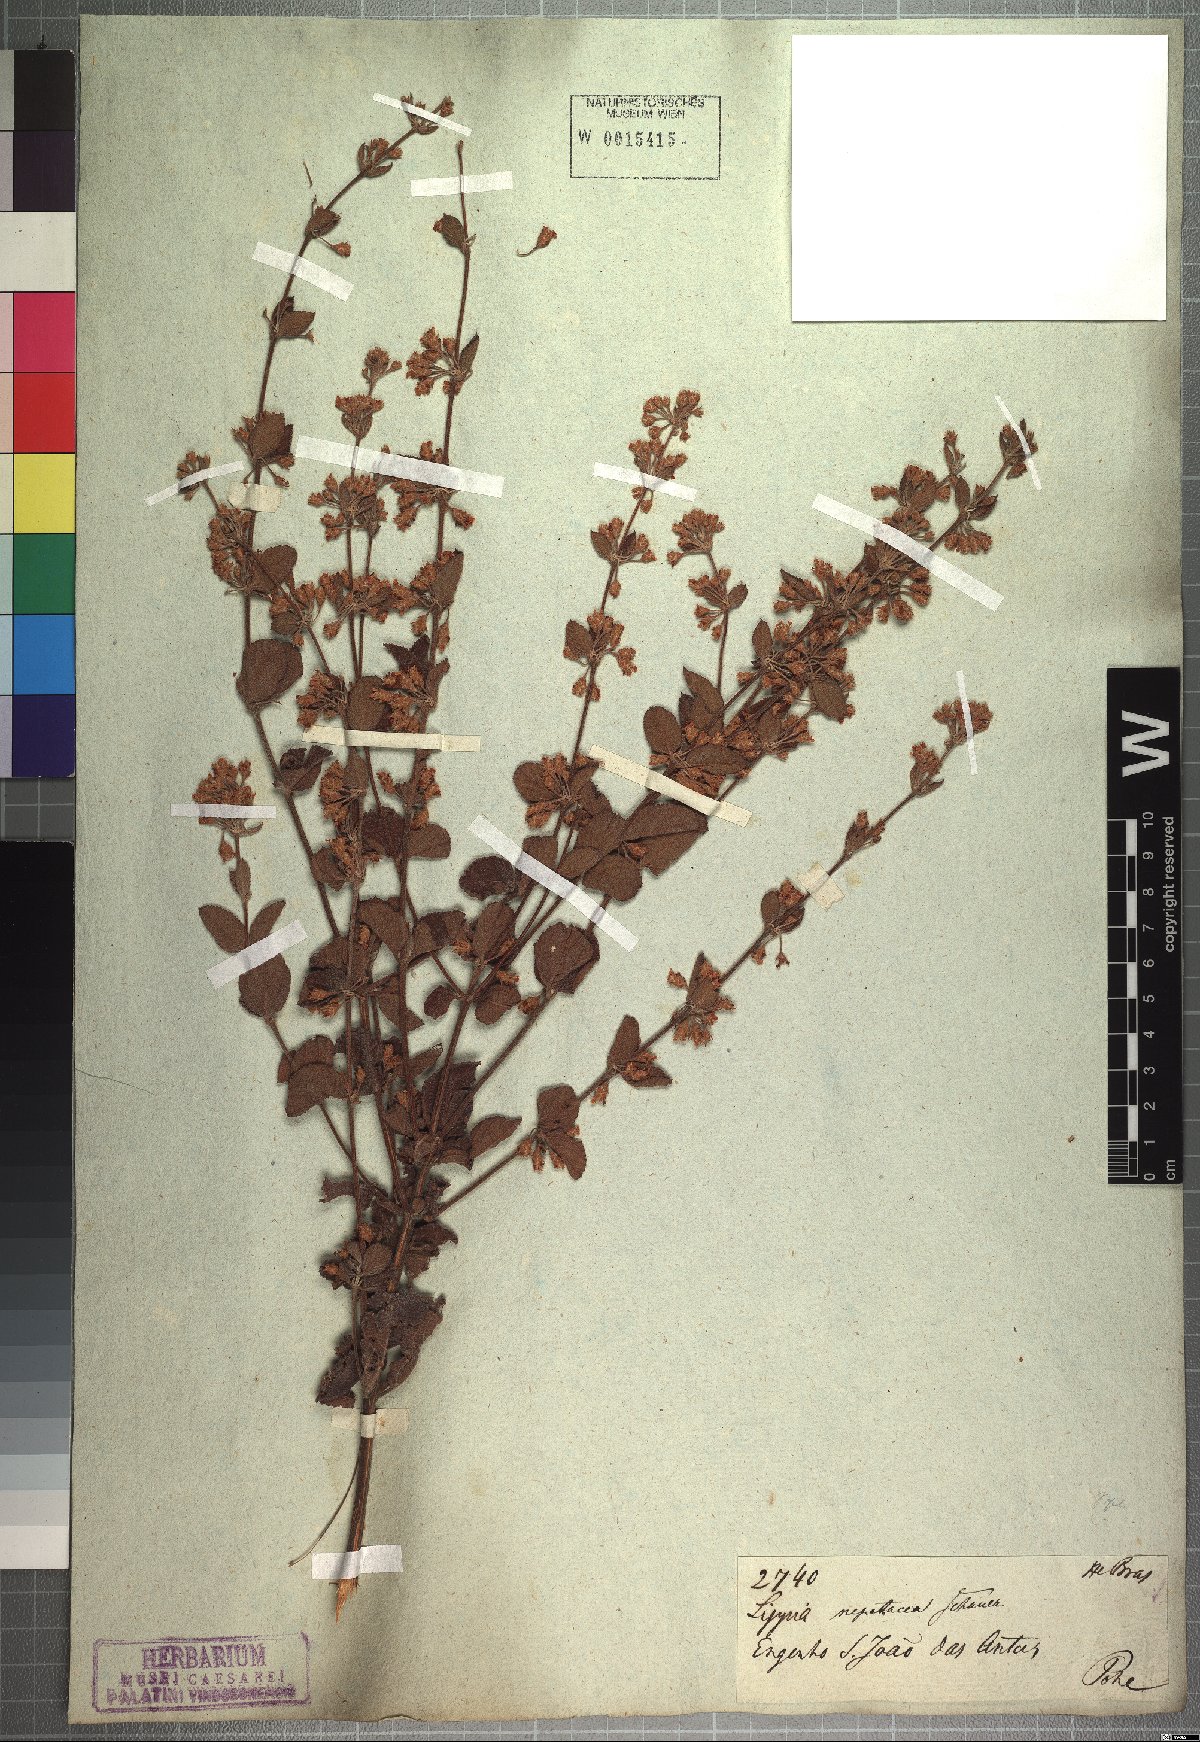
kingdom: Plantae
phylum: Tracheophyta
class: Magnoliopsida
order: Lamiales
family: Verbenaceae
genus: Lippia
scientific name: Lippia martiana
